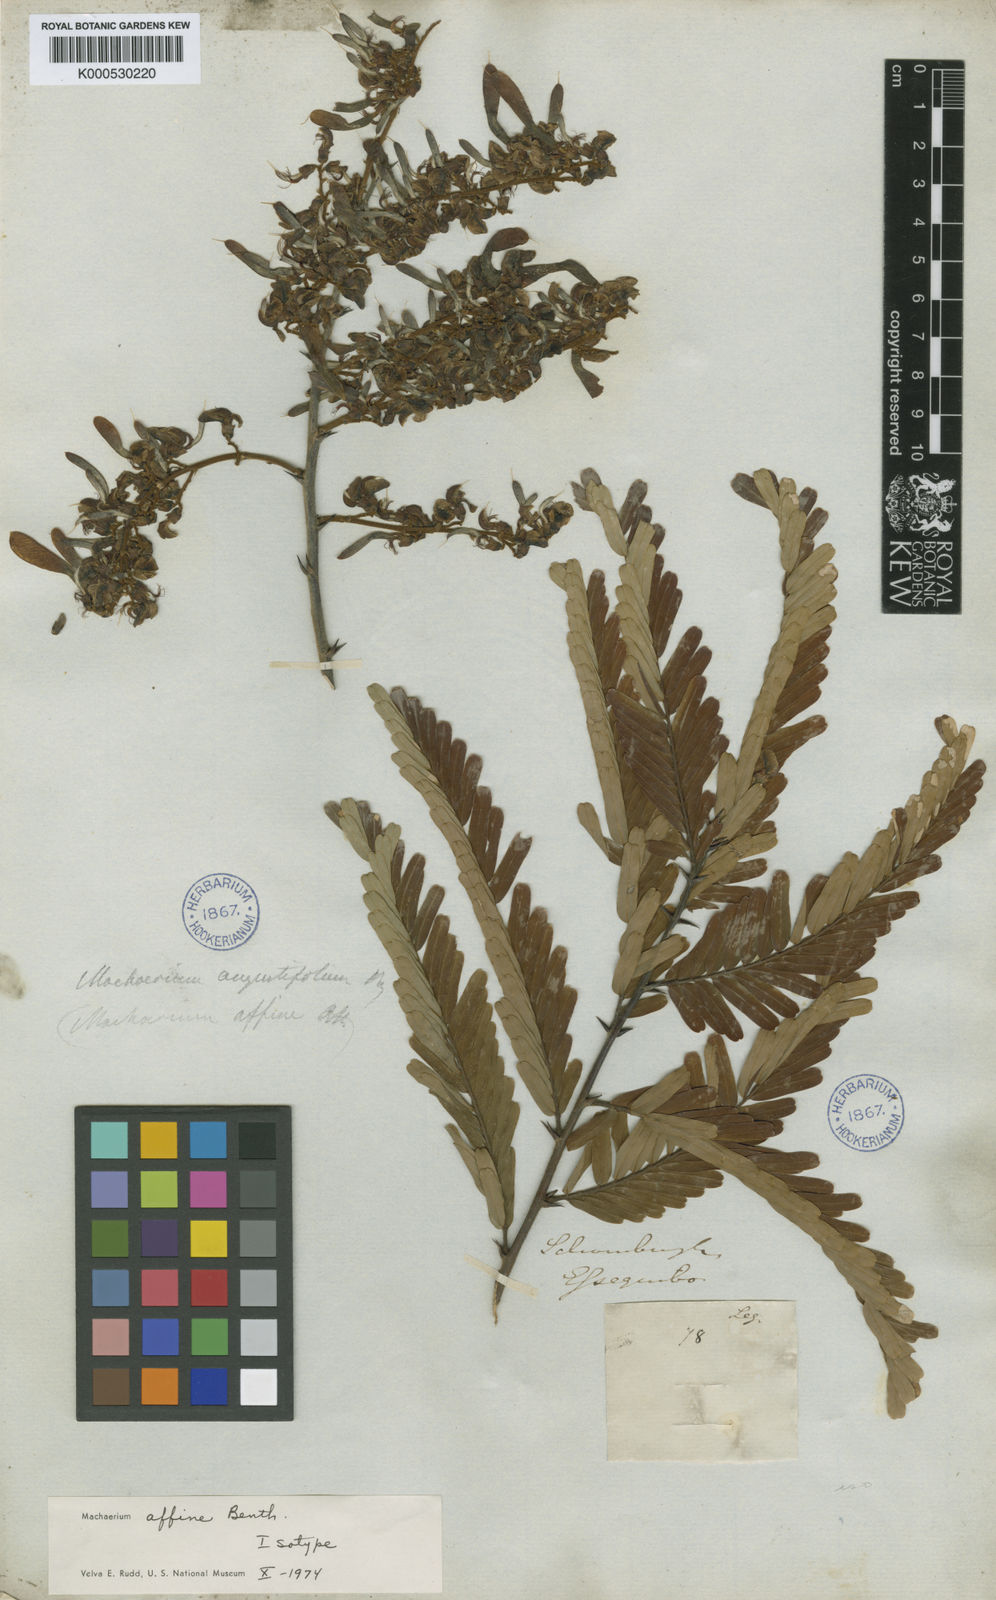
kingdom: Plantae
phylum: Tracheophyta
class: Magnoliopsida
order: Fabales
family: Fabaceae
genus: Machaerium
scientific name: Machaerium hirtum
